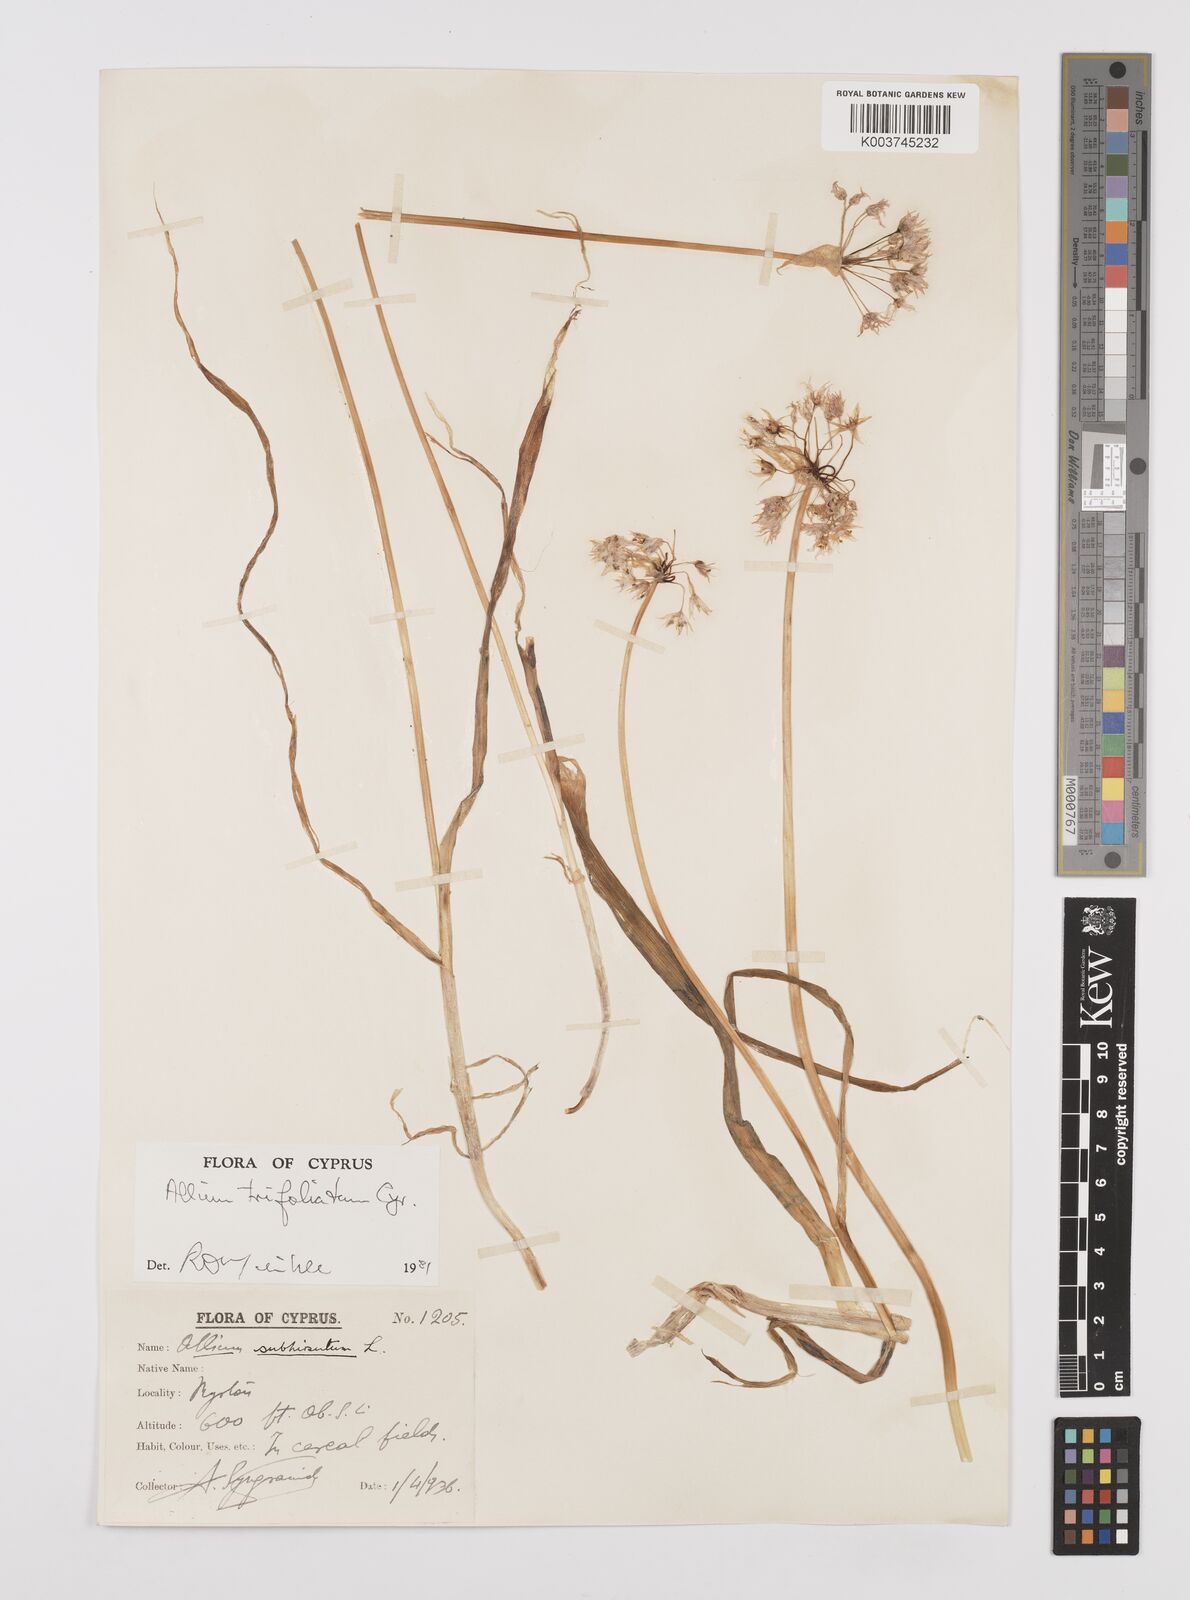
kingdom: Plantae
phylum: Tracheophyta
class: Liliopsida
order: Asparagales
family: Amaryllidaceae
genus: Allium
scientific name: Allium subhirsutum
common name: Hairy garlic
